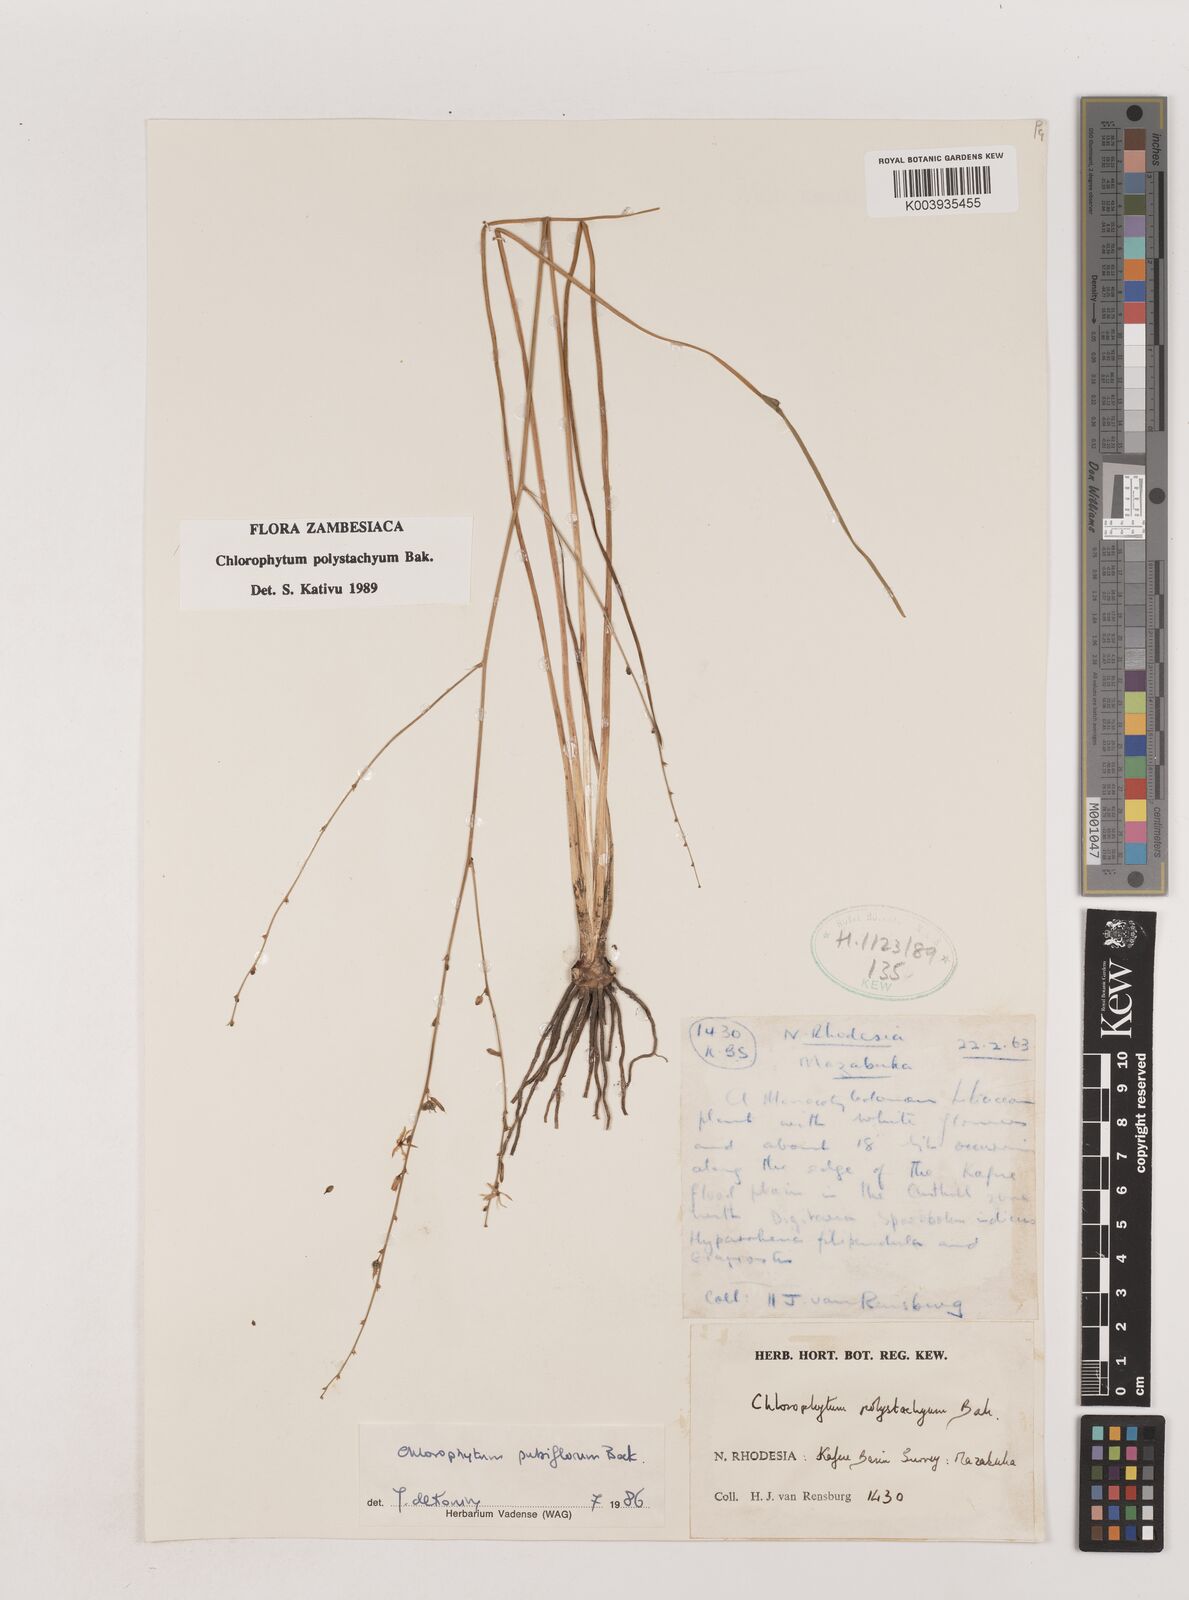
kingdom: Plantae
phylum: Tracheophyta
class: Liliopsida
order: Asparagales
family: Asparagaceae
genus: Chlorophytum
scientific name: Chlorophytum polystachys
